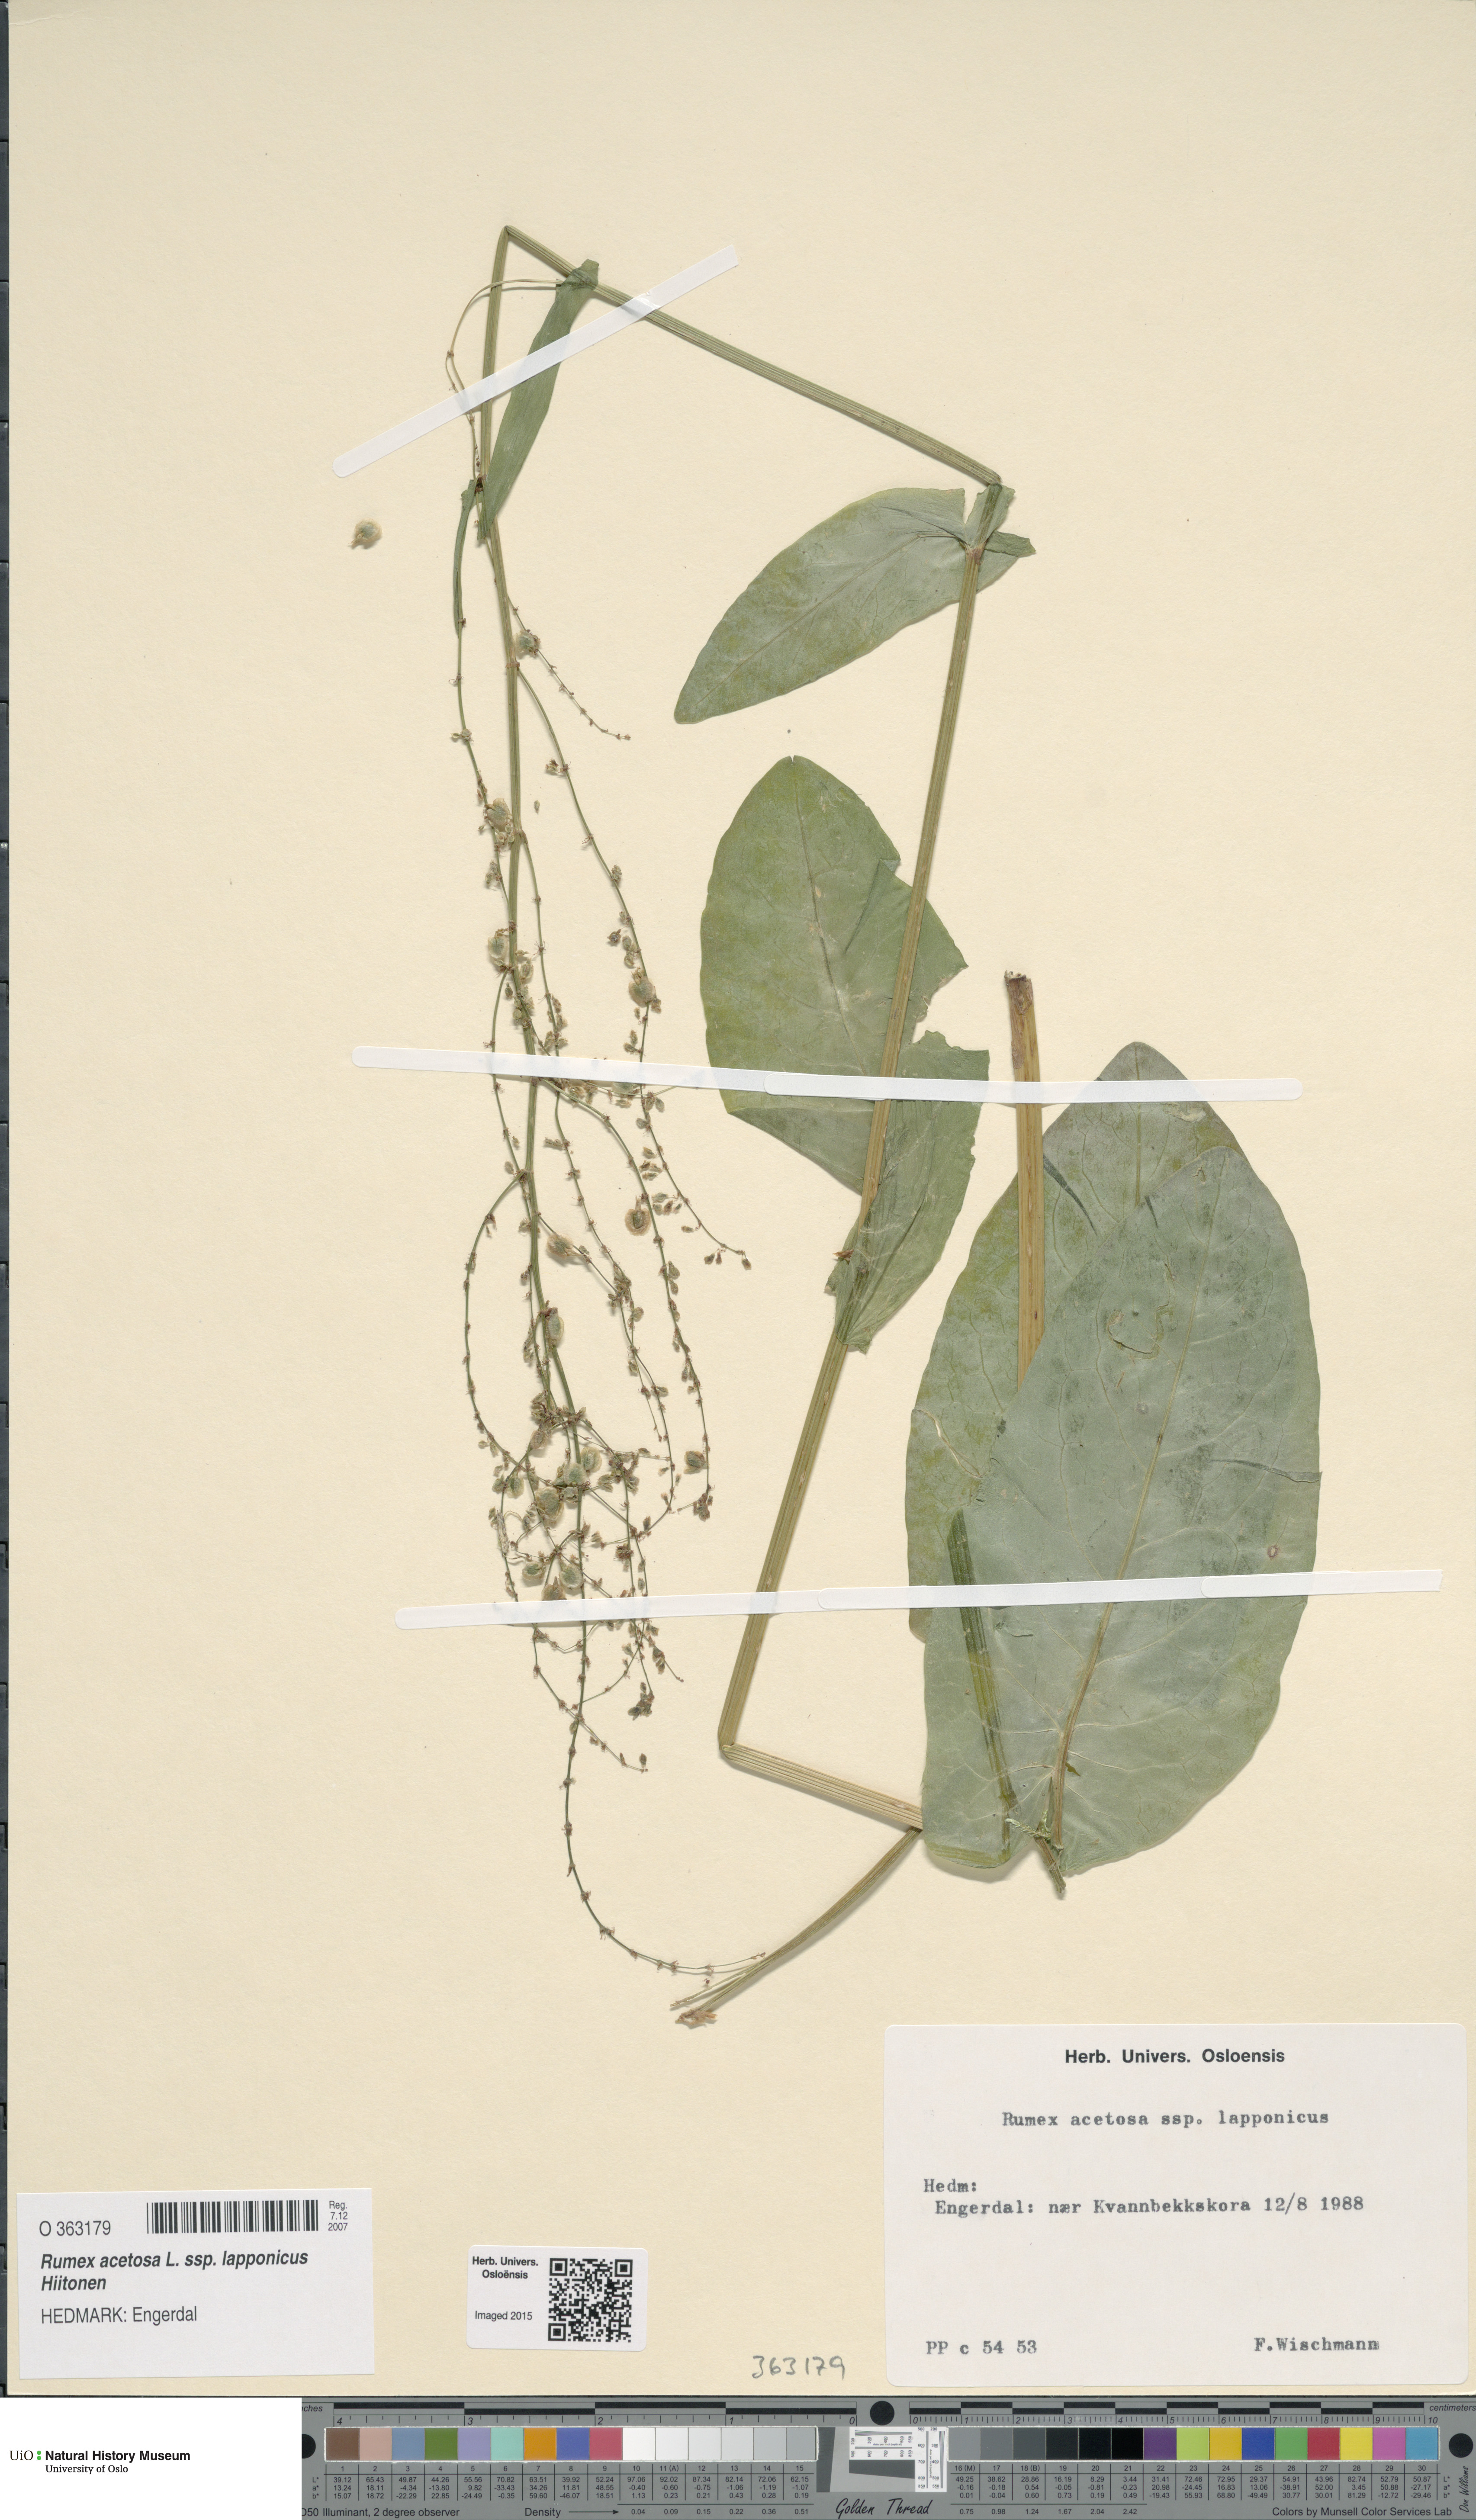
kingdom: Plantae
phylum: Tracheophyta
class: Magnoliopsida
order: Caryophyllales
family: Polygonaceae
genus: Rumex
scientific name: Rumex lapponicus
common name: Lapland mountain sorrel
